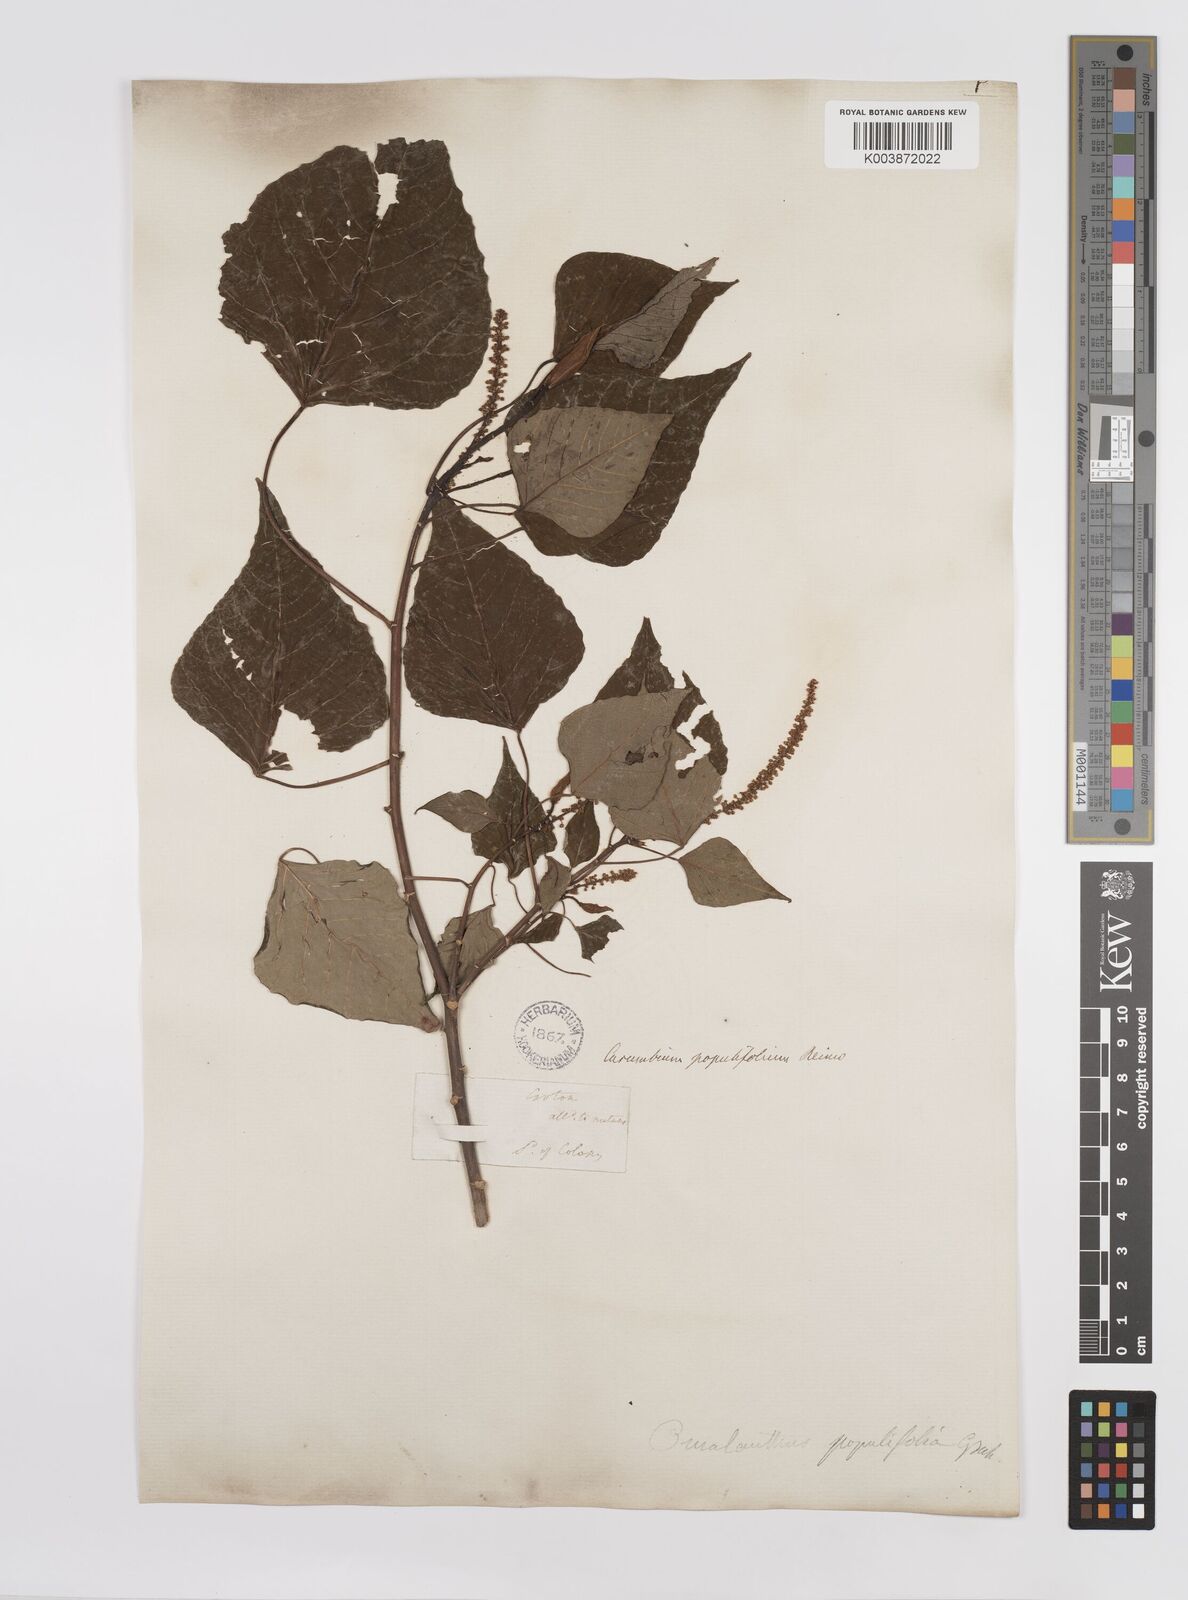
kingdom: Plantae
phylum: Tracheophyta
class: Magnoliopsida
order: Malpighiales
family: Euphorbiaceae
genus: Homalanthus
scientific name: Homalanthus populifolius
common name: Queensland poplar
